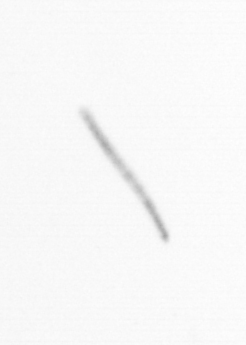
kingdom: Chromista
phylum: Ochrophyta
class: Bacillariophyceae
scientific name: Bacillariophyceae
